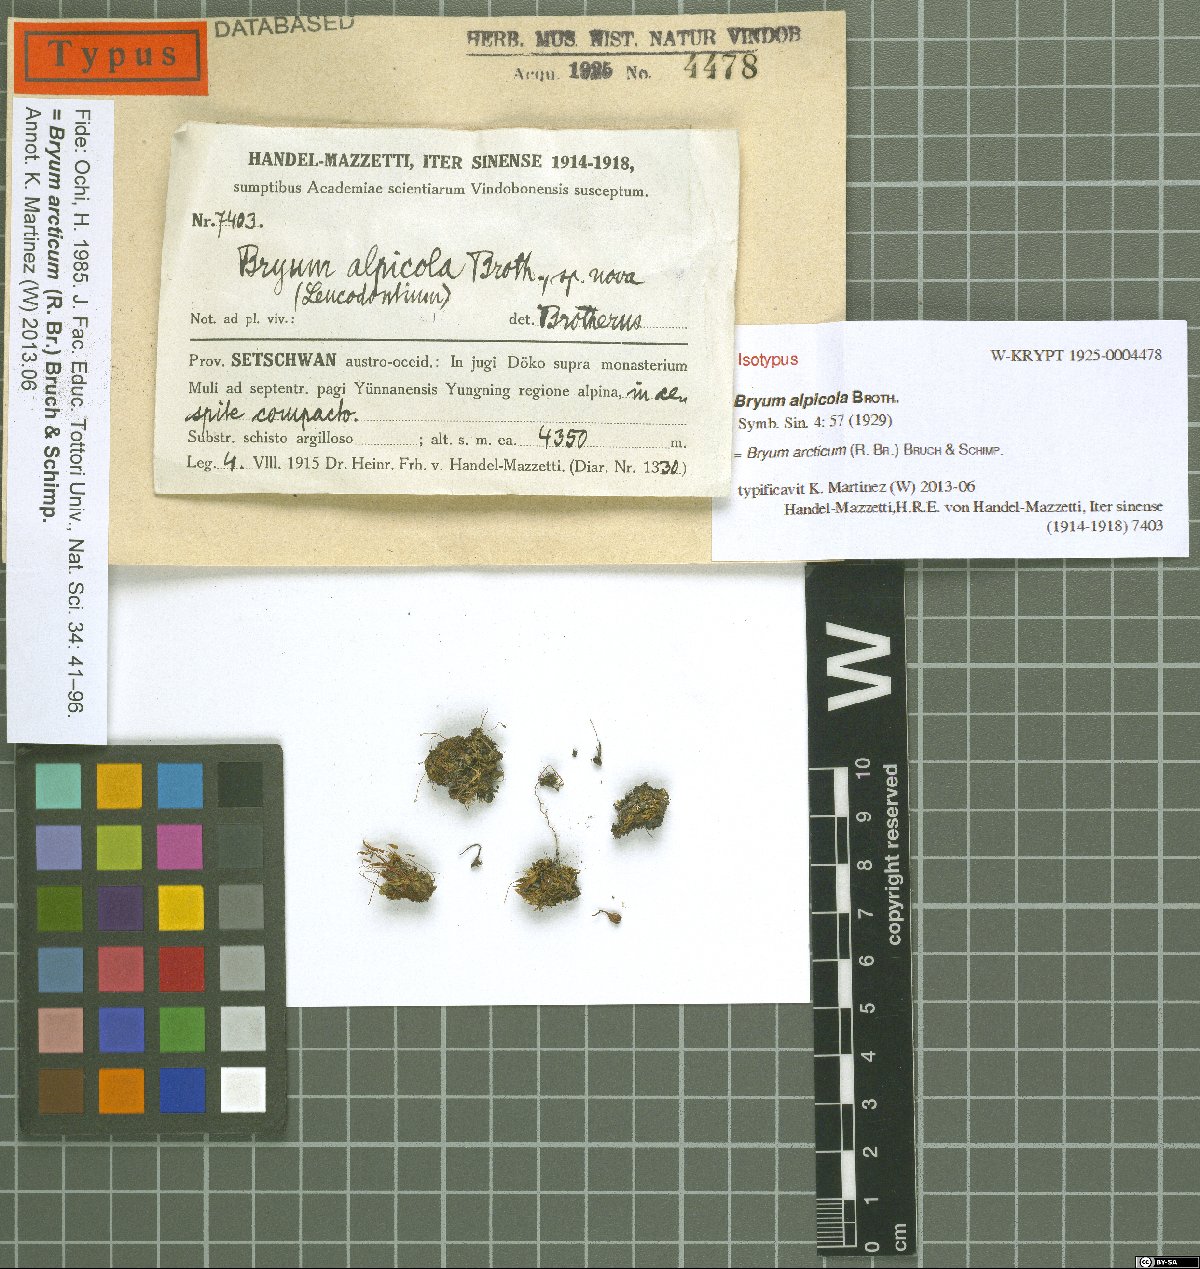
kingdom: Plantae
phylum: Bryophyta
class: Bryopsida
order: Bryales
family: Bryaceae
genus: Ptychostomum
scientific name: Ptychostomum arcticum
